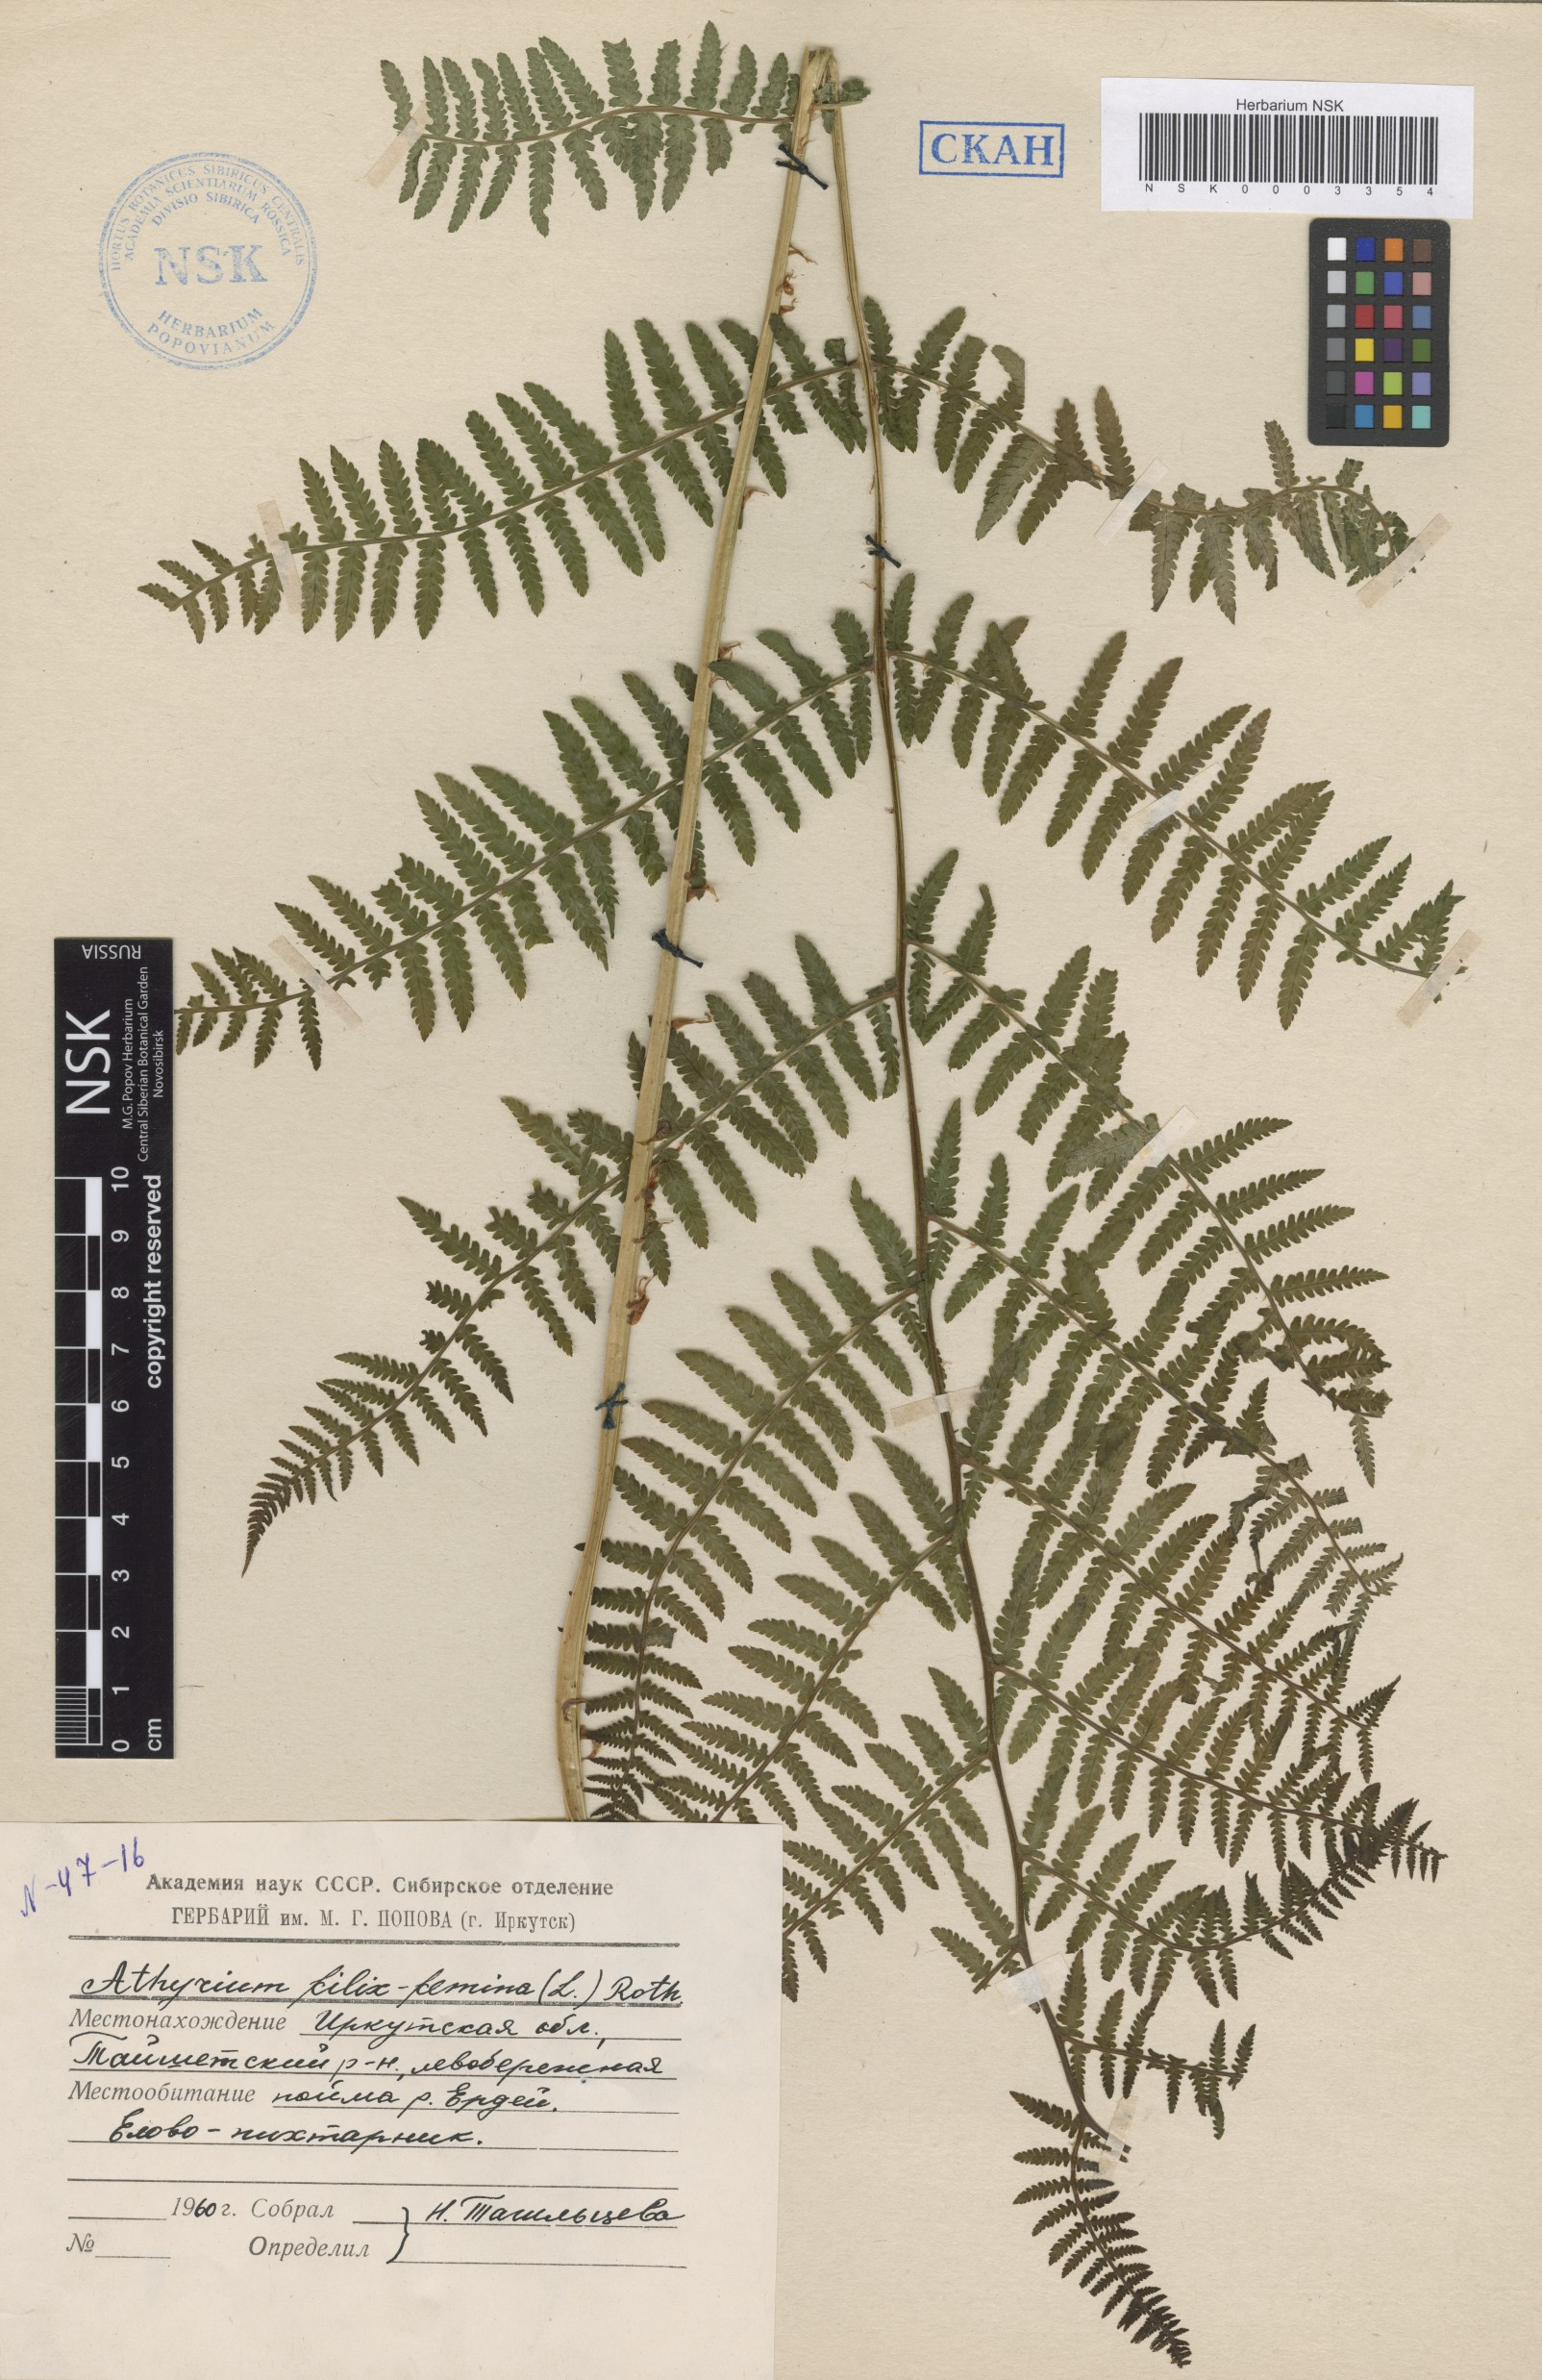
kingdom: Plantae
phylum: Tracheophyta
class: Polypodiopsida
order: Polypodiales
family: Athyriaceae
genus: Athyrium
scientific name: Athyrium filix-femina
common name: Lady fern
